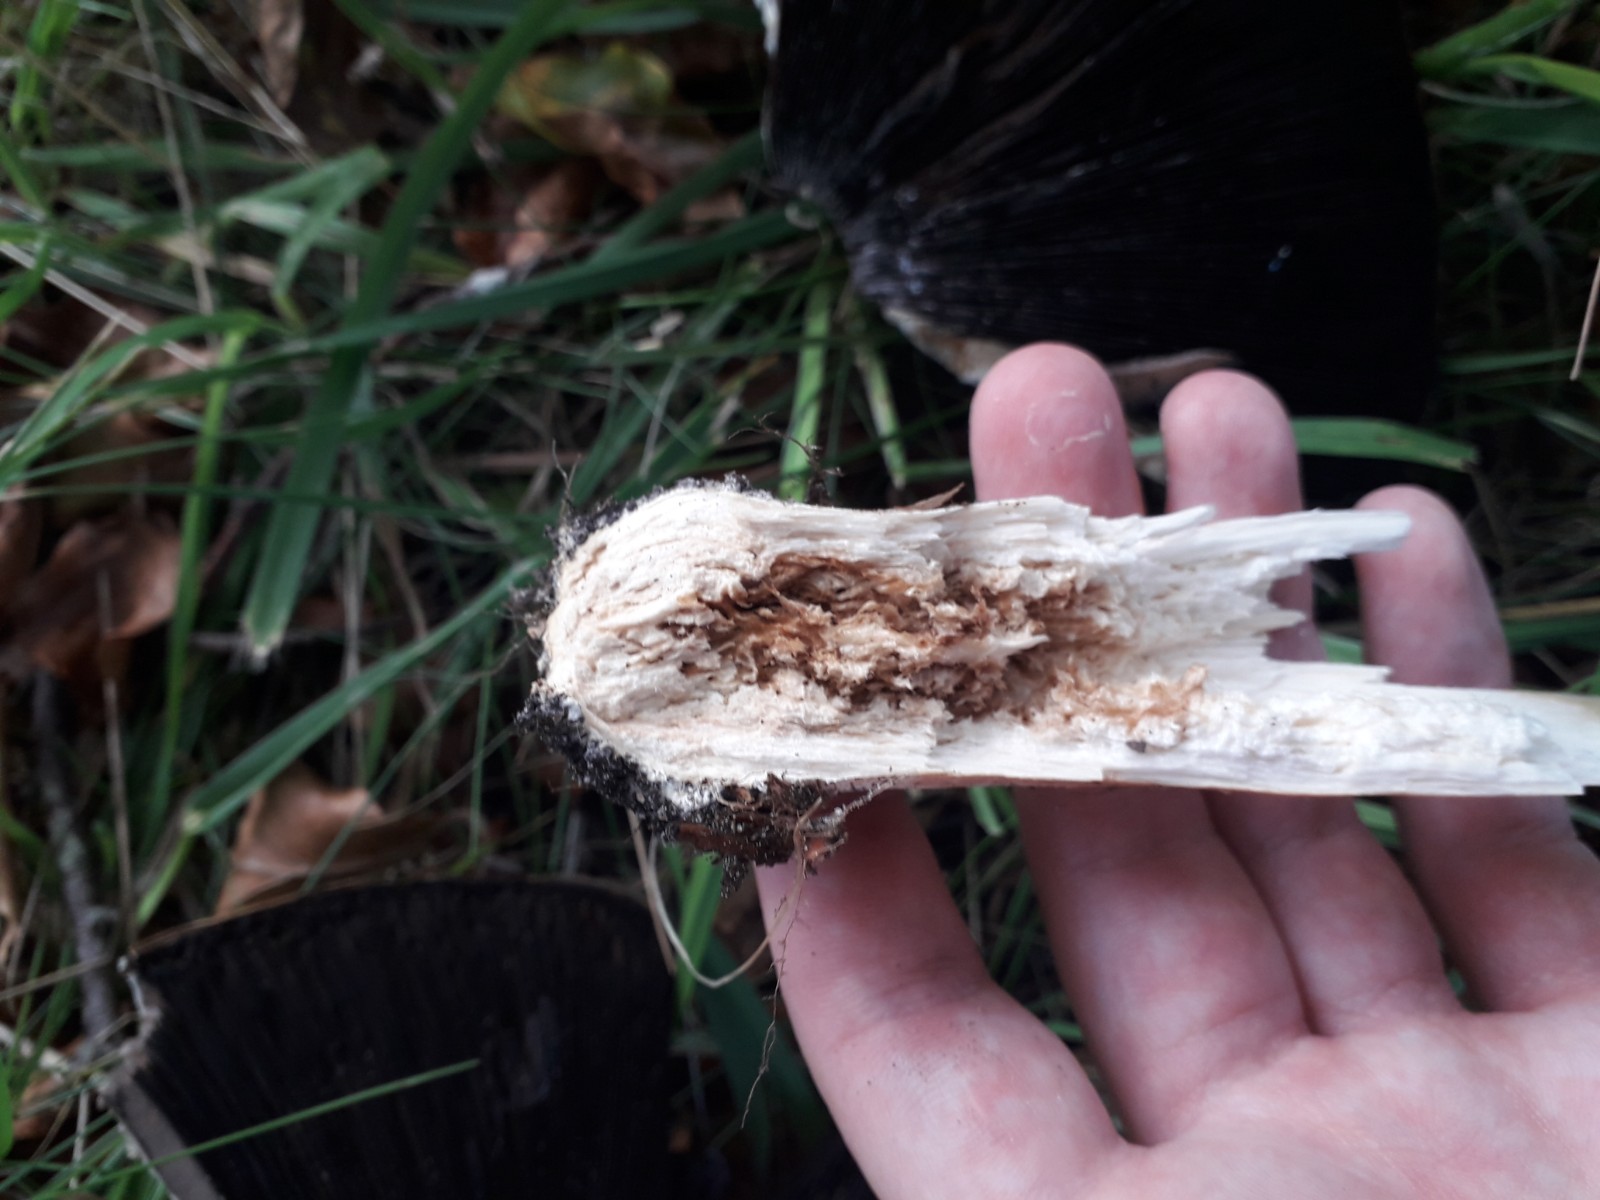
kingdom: Fungi
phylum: Basidiomycota
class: Agaricomycetes
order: Agaricales
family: Agaricaceae
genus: Agaricus
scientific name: Agaricus
